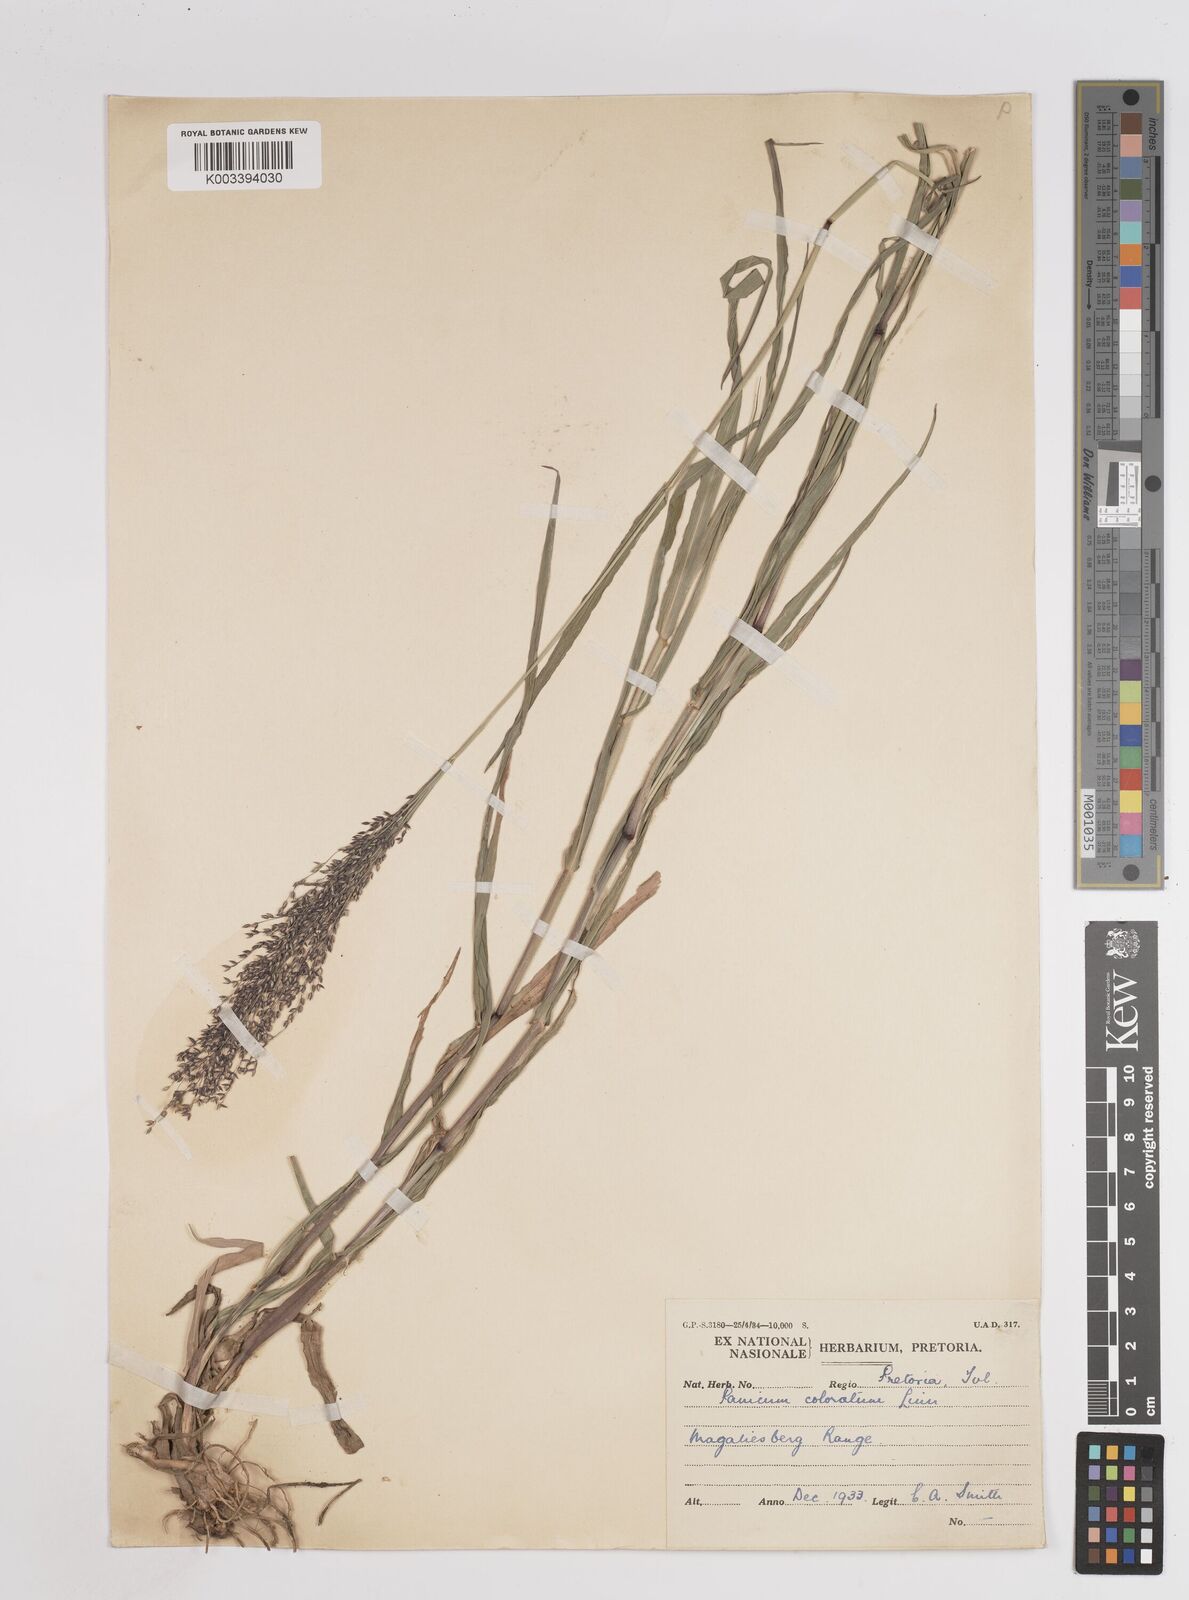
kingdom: Plantae
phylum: Tracheophyta
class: Liliopsida
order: Poales
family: Poaceae
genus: Panicum
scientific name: Panicum coloratum
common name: Kleingrass
